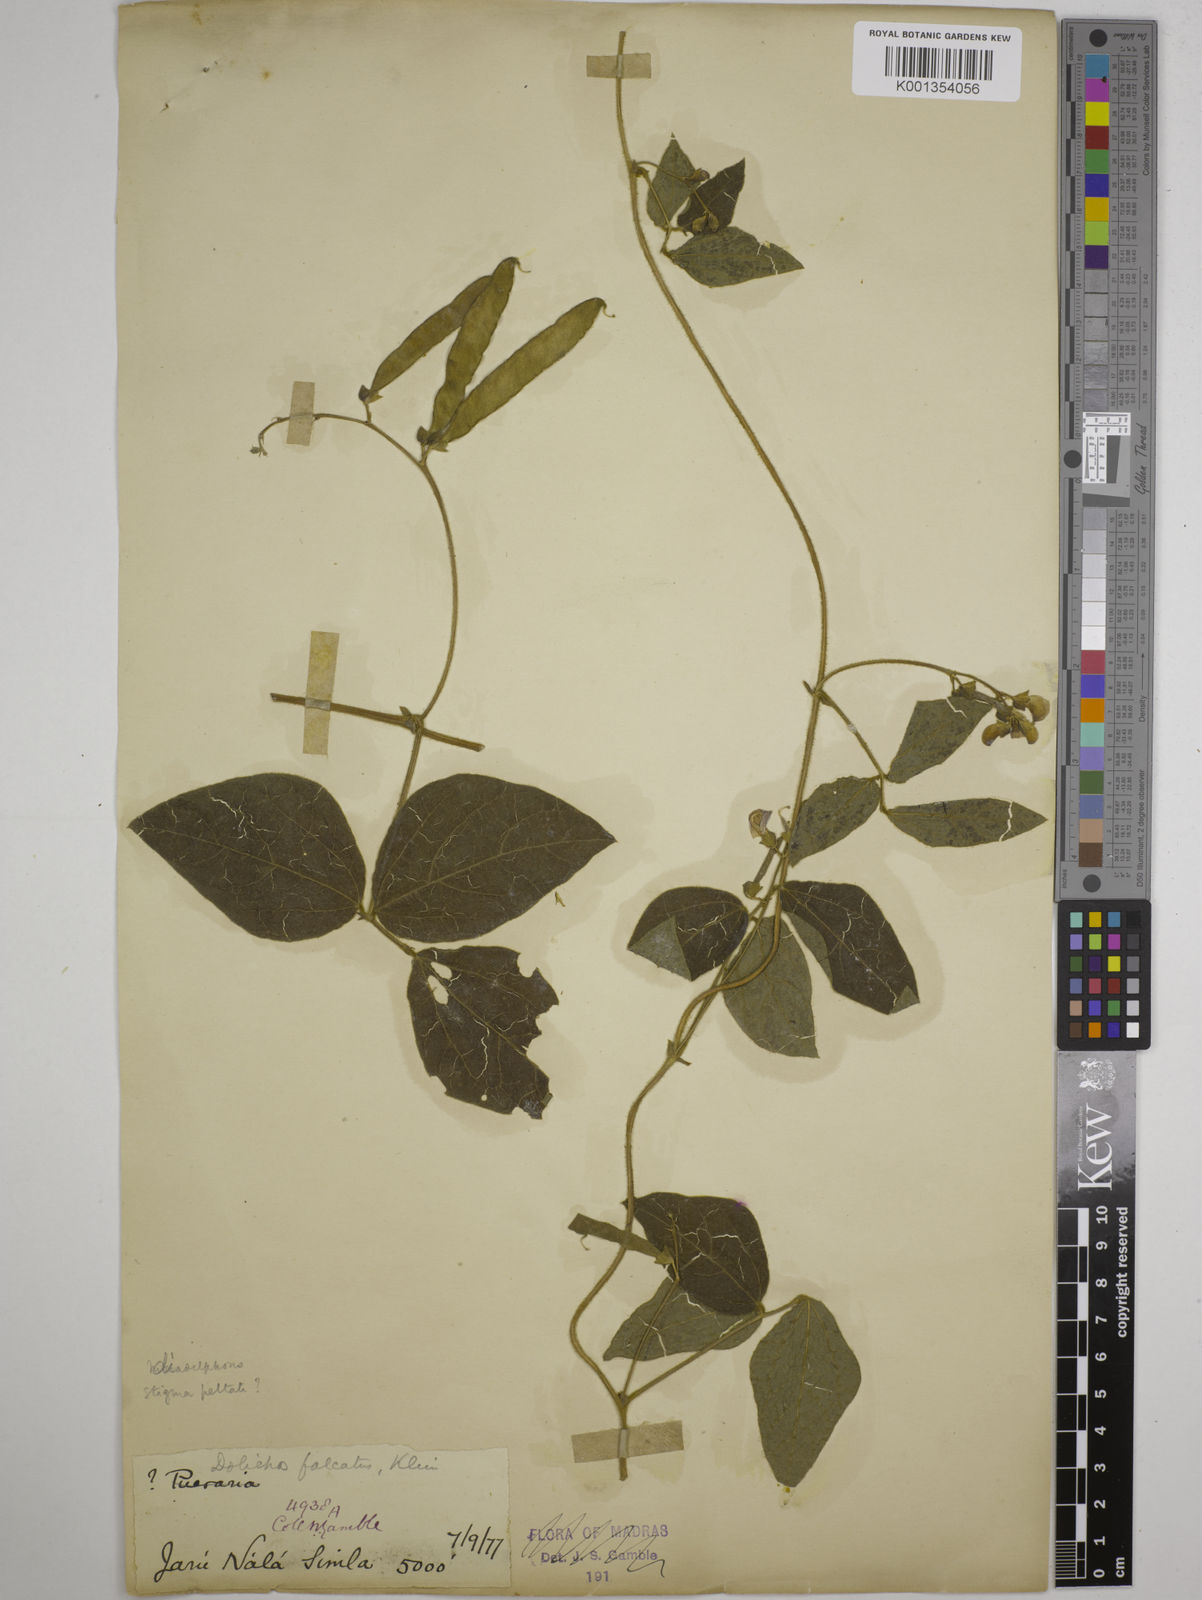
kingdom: Plantae
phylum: Tracheophyta
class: Magnoliopsida
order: Fabales
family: Fabaceae
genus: Dolichos
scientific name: Dolichos
